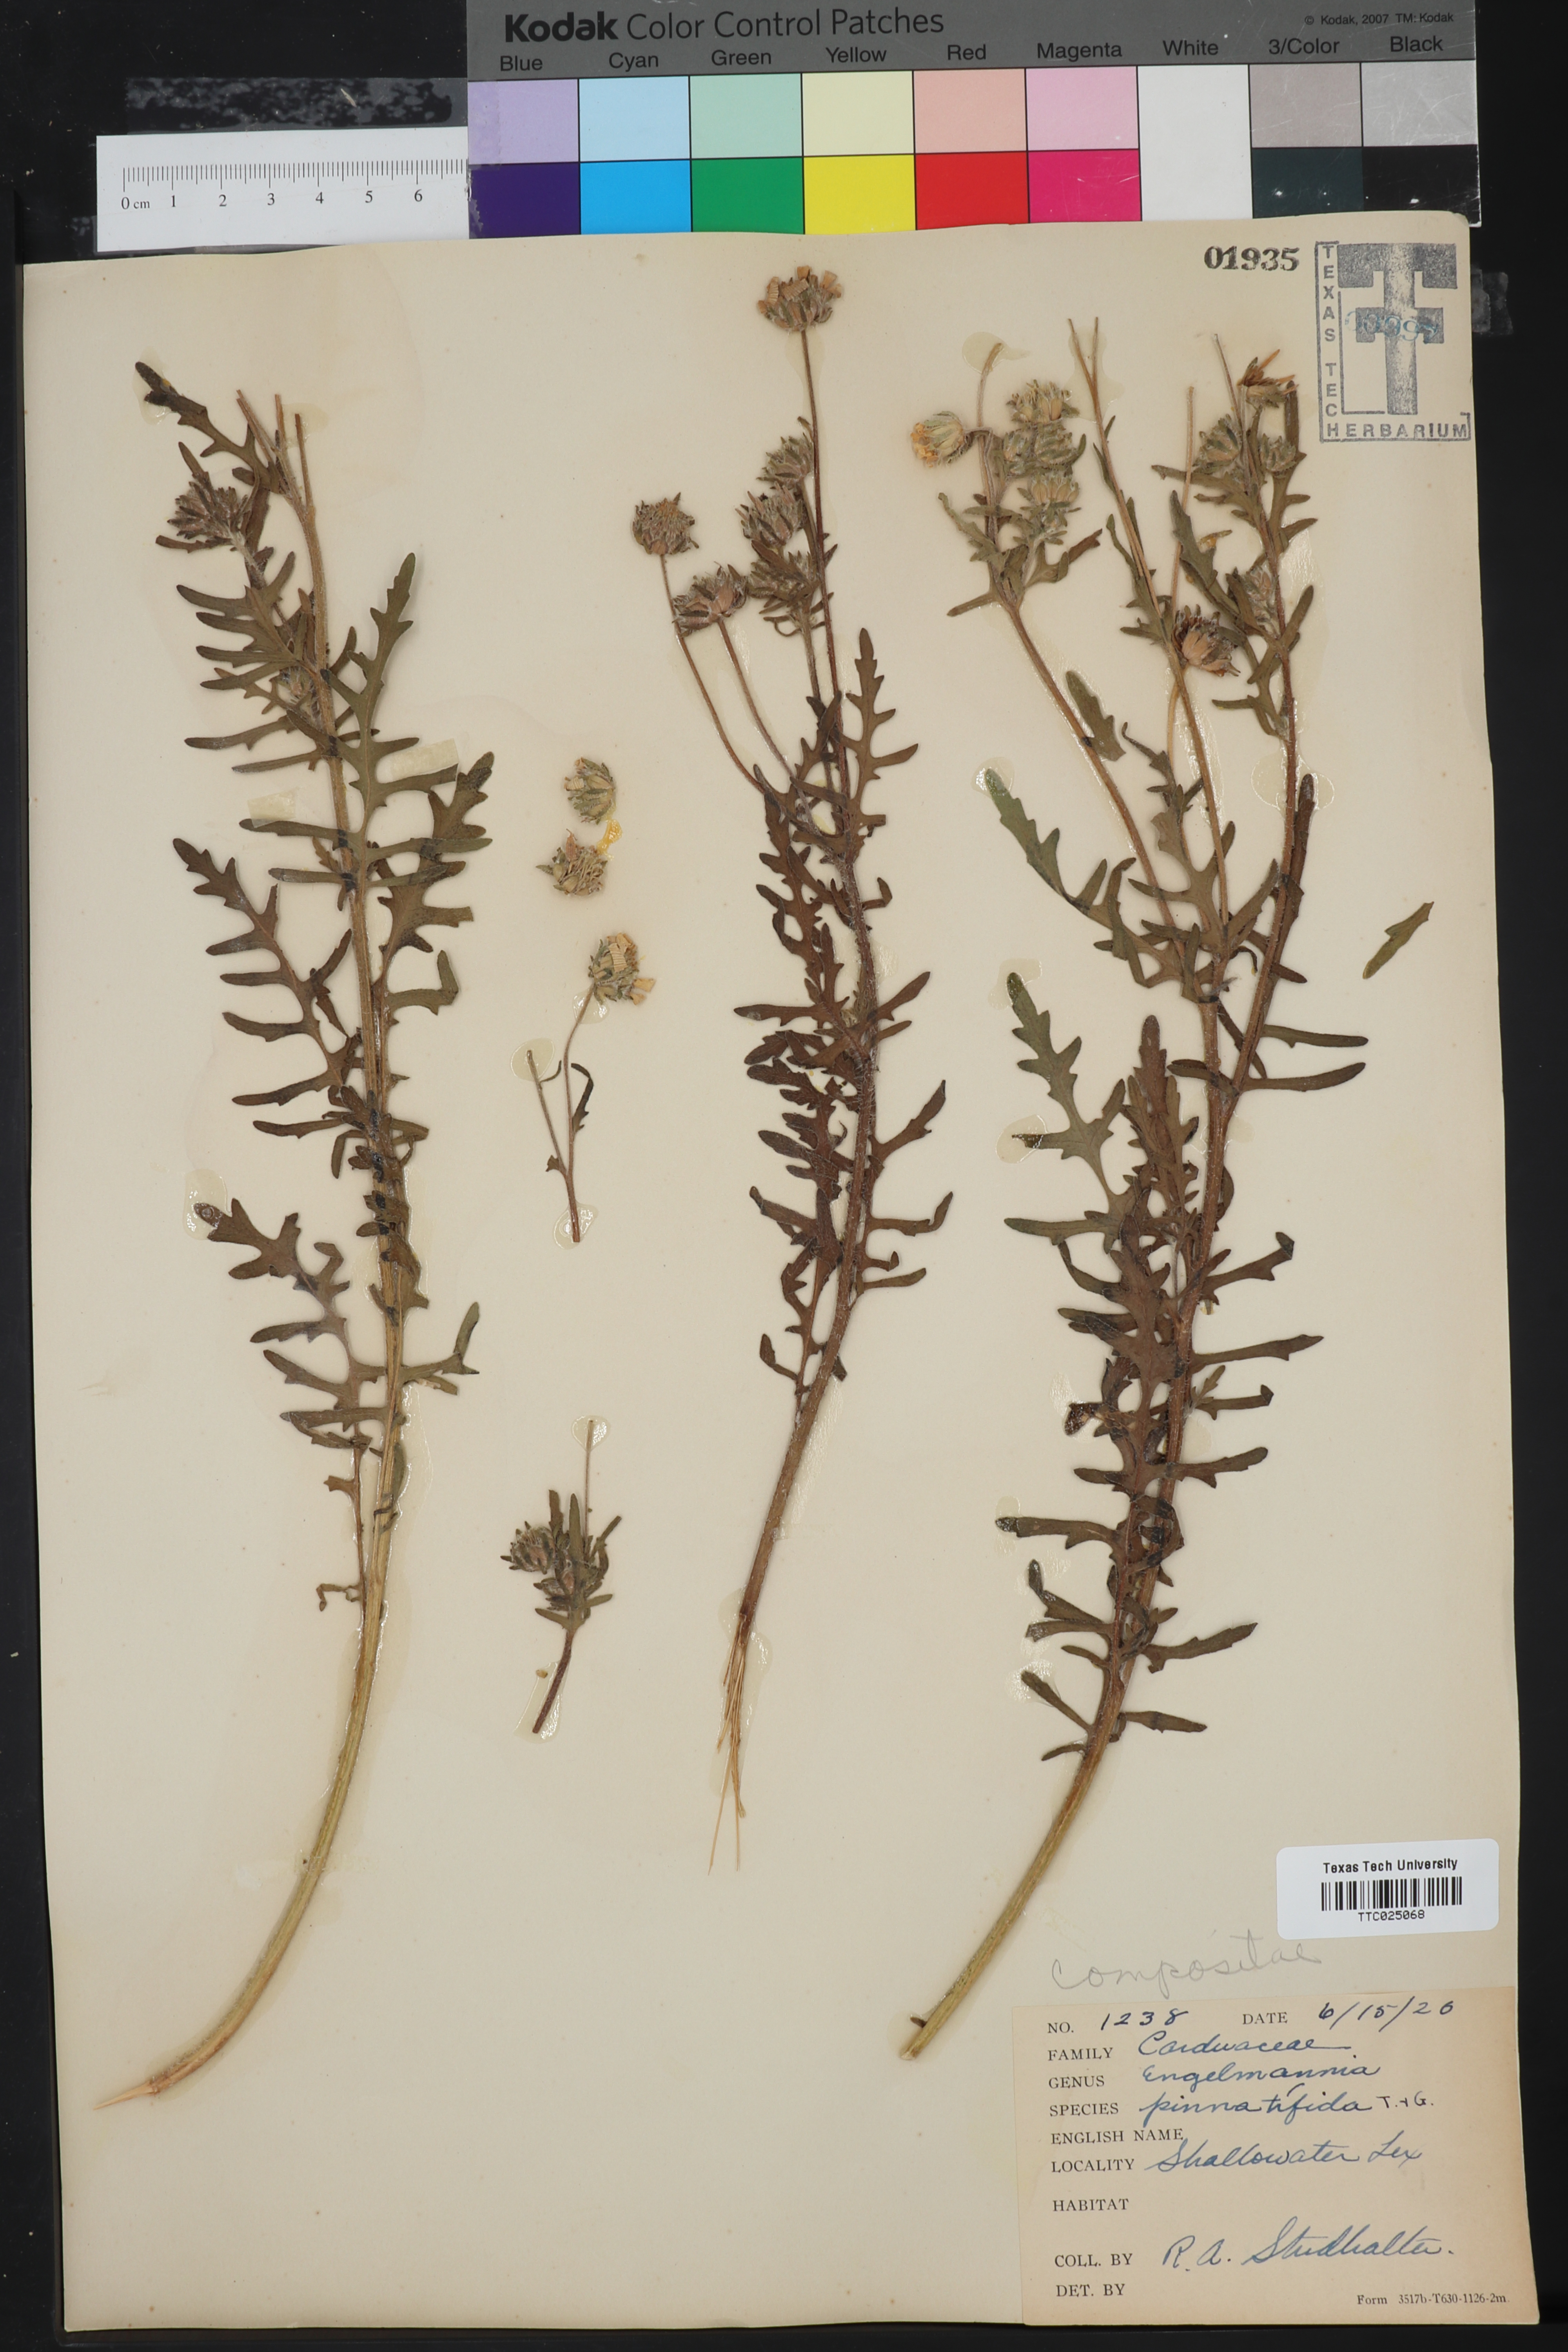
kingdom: Plantae
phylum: Tracheophyta
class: Magnoliopsida
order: Asterales
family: Asteraceae
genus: Engelmannia
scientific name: Engelmannia peristenia
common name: Engelmann's daisy
